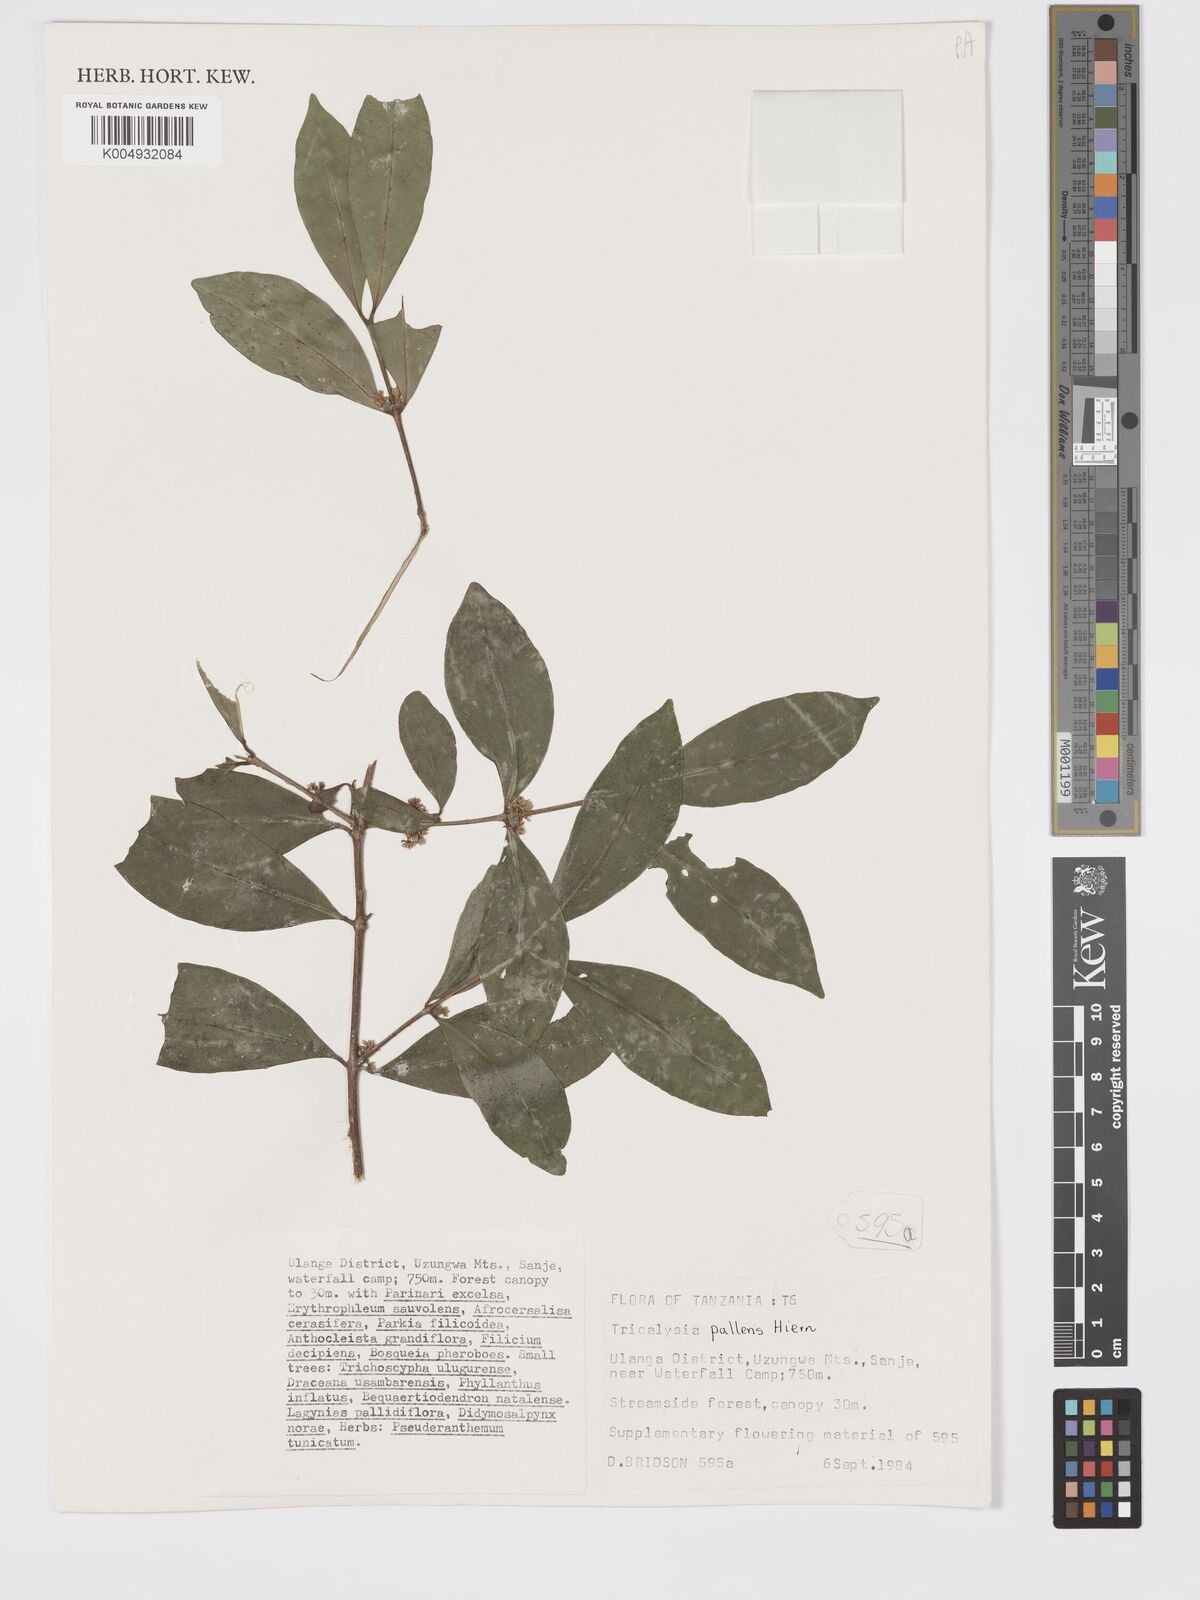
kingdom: Plantae
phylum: Tracheophyta
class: Magnoliopsida
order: Gentianales
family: Rubiaceae
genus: Tricalysia
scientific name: Tricalysia pallens
